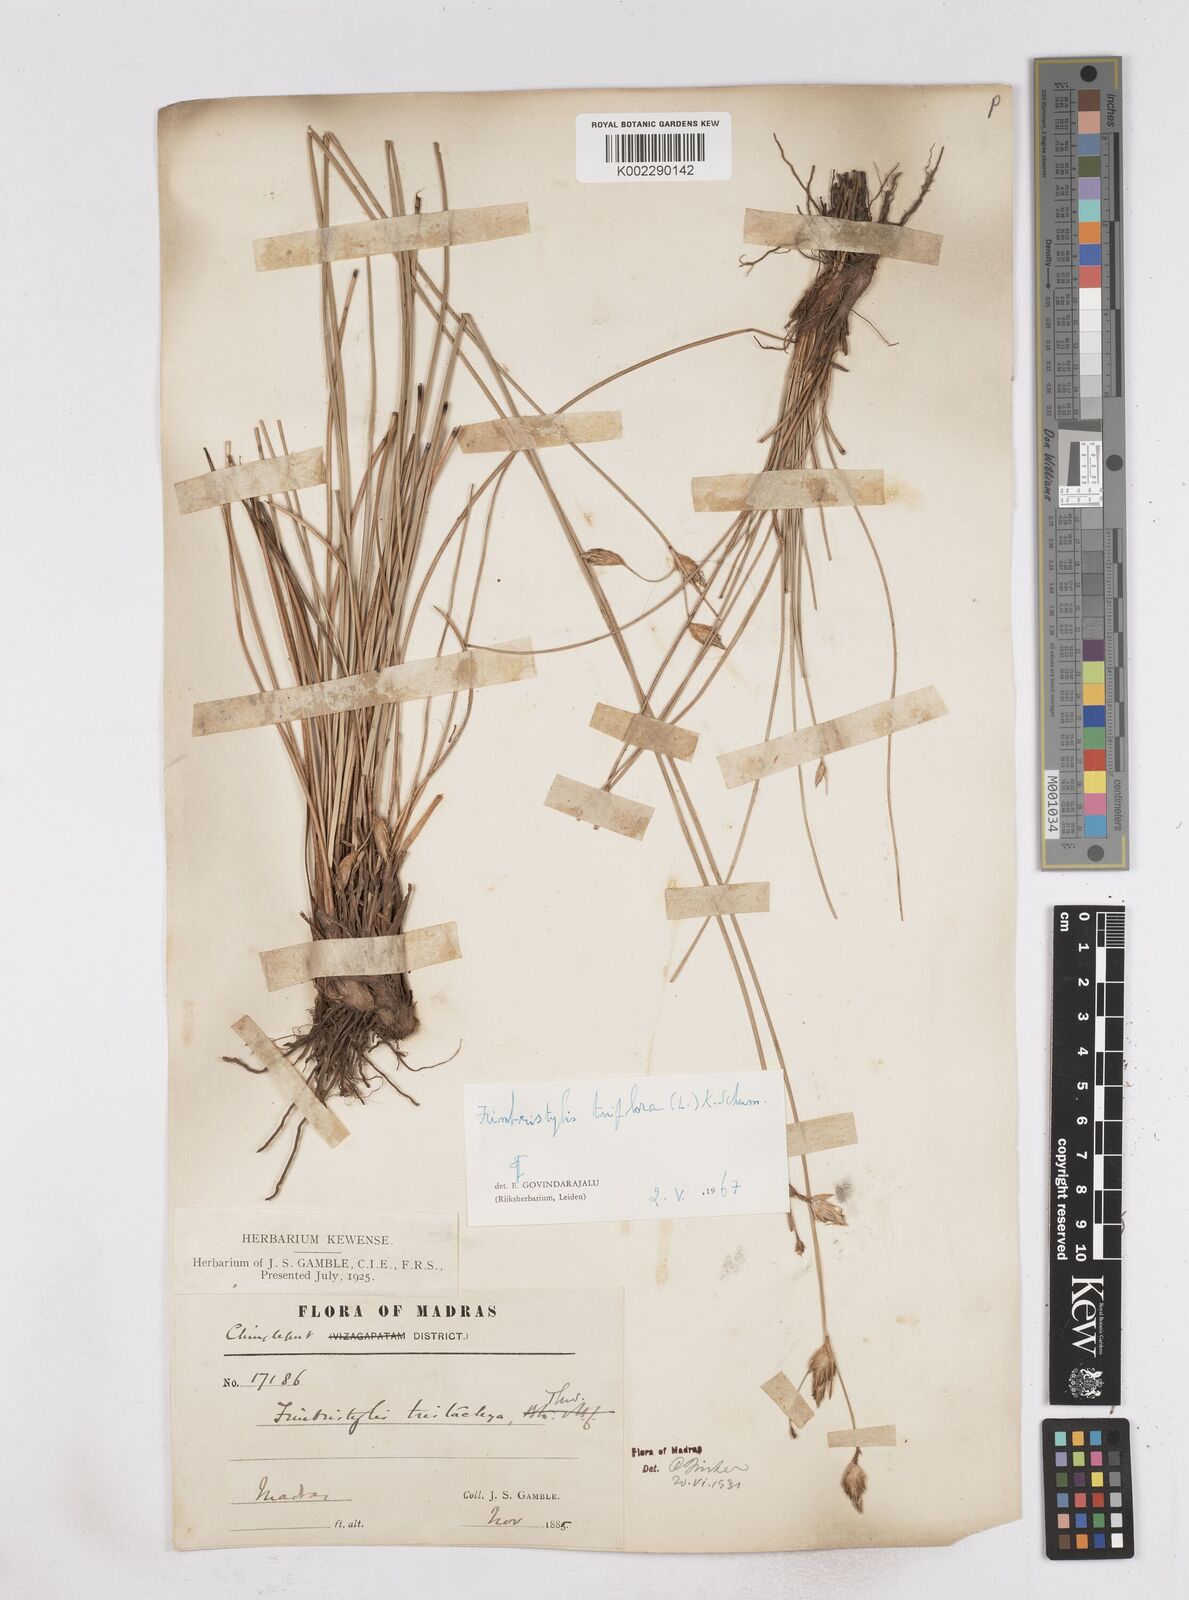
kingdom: Plantae
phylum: Tracheophyta
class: Liliopsida
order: Poales
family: Cyperaceae
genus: Abildgaardia
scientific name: Abildgaardia triflora
